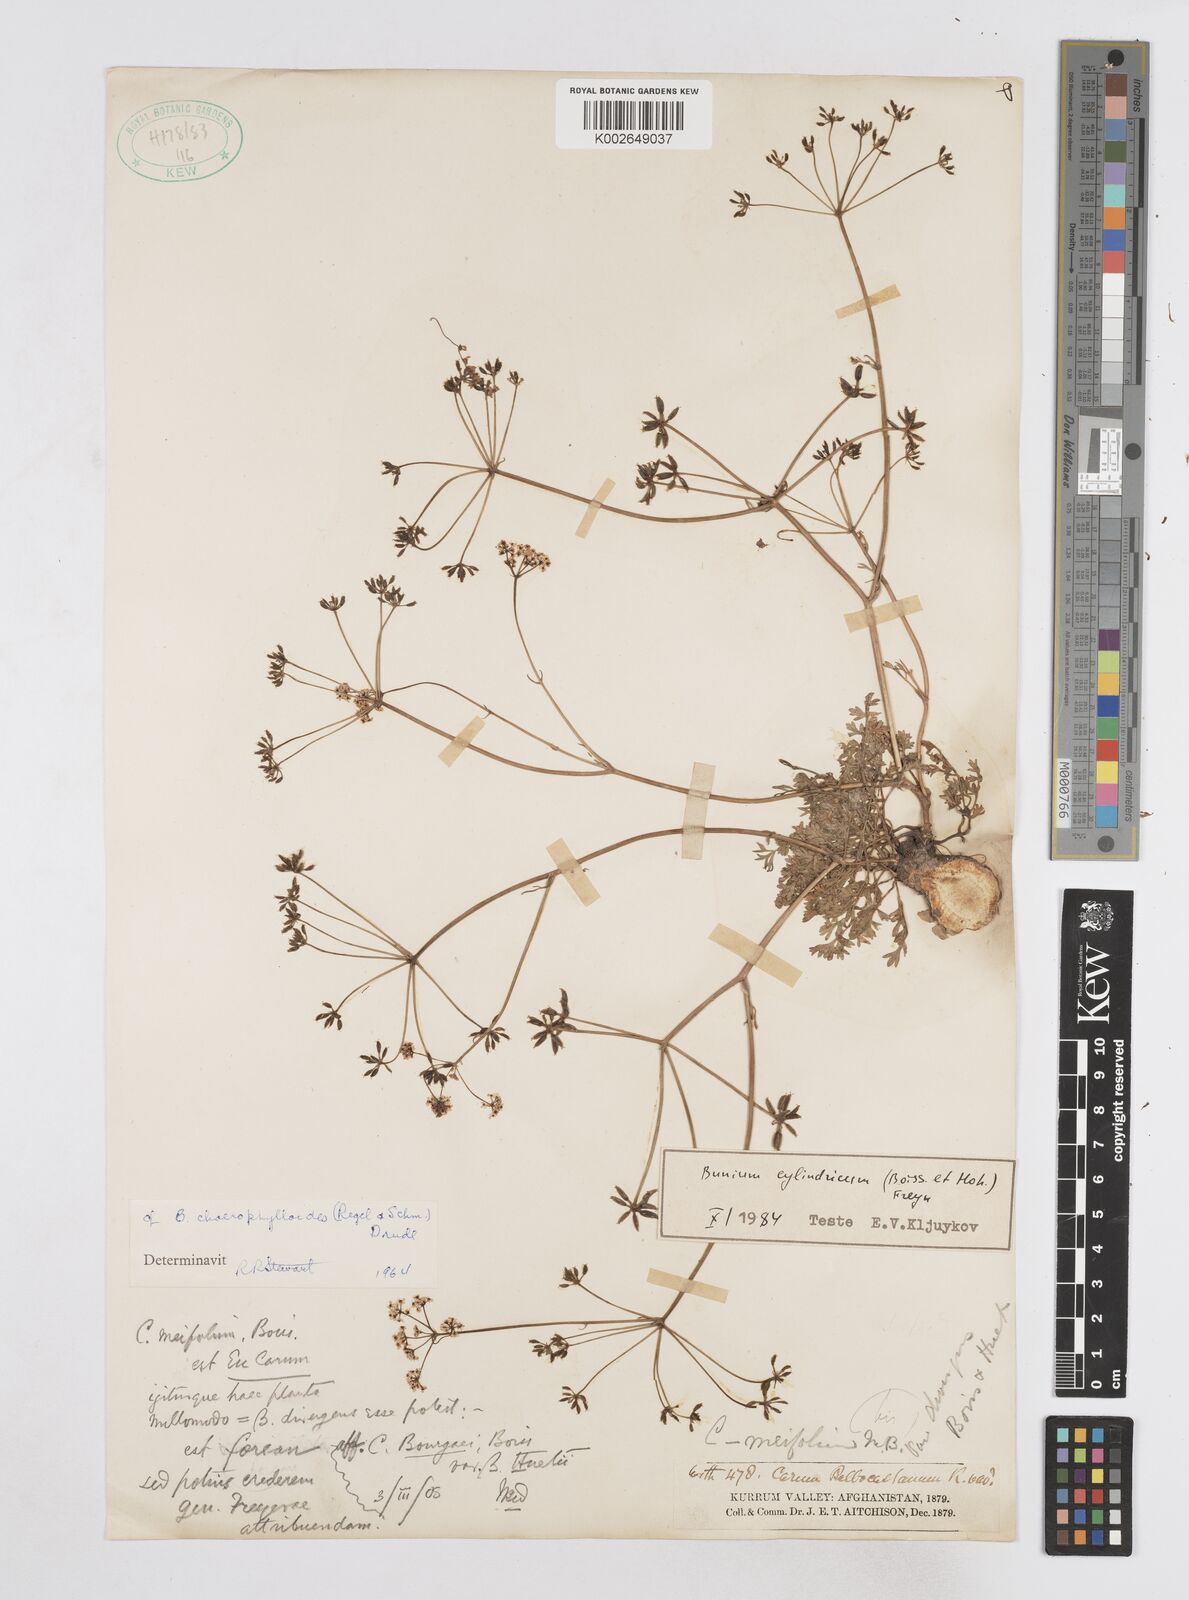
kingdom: Plantae
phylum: Tracheophyta
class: Magnoliopsida
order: Apiales
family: Apiaceae
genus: Elwendia
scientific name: Elwendia cylindrica
